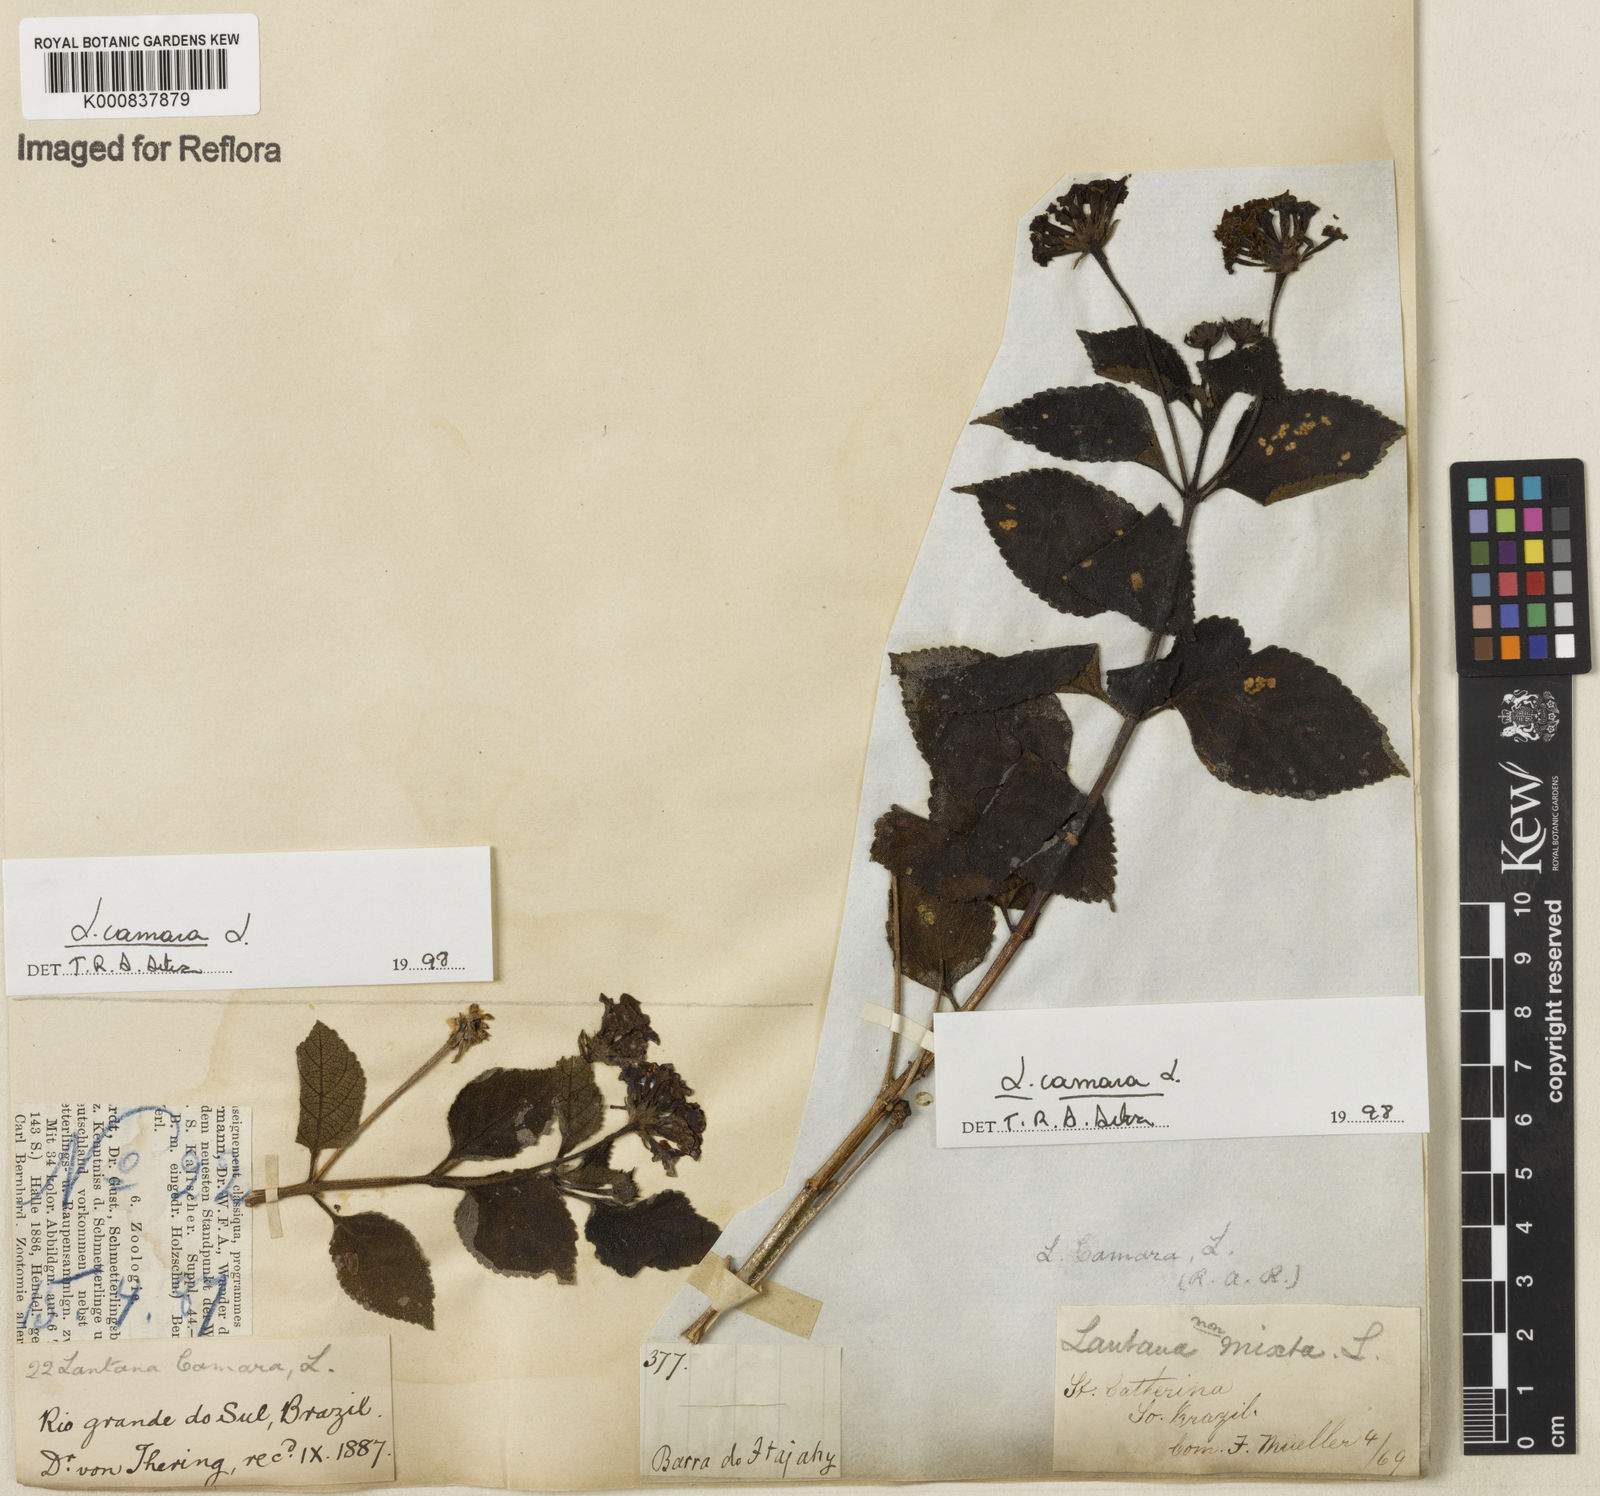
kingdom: Plantae
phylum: Tracheophyta
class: Magnoliopsida
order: Lamiales
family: Verbenaceae
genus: Lantana
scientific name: Lantana camara
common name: Lantana
